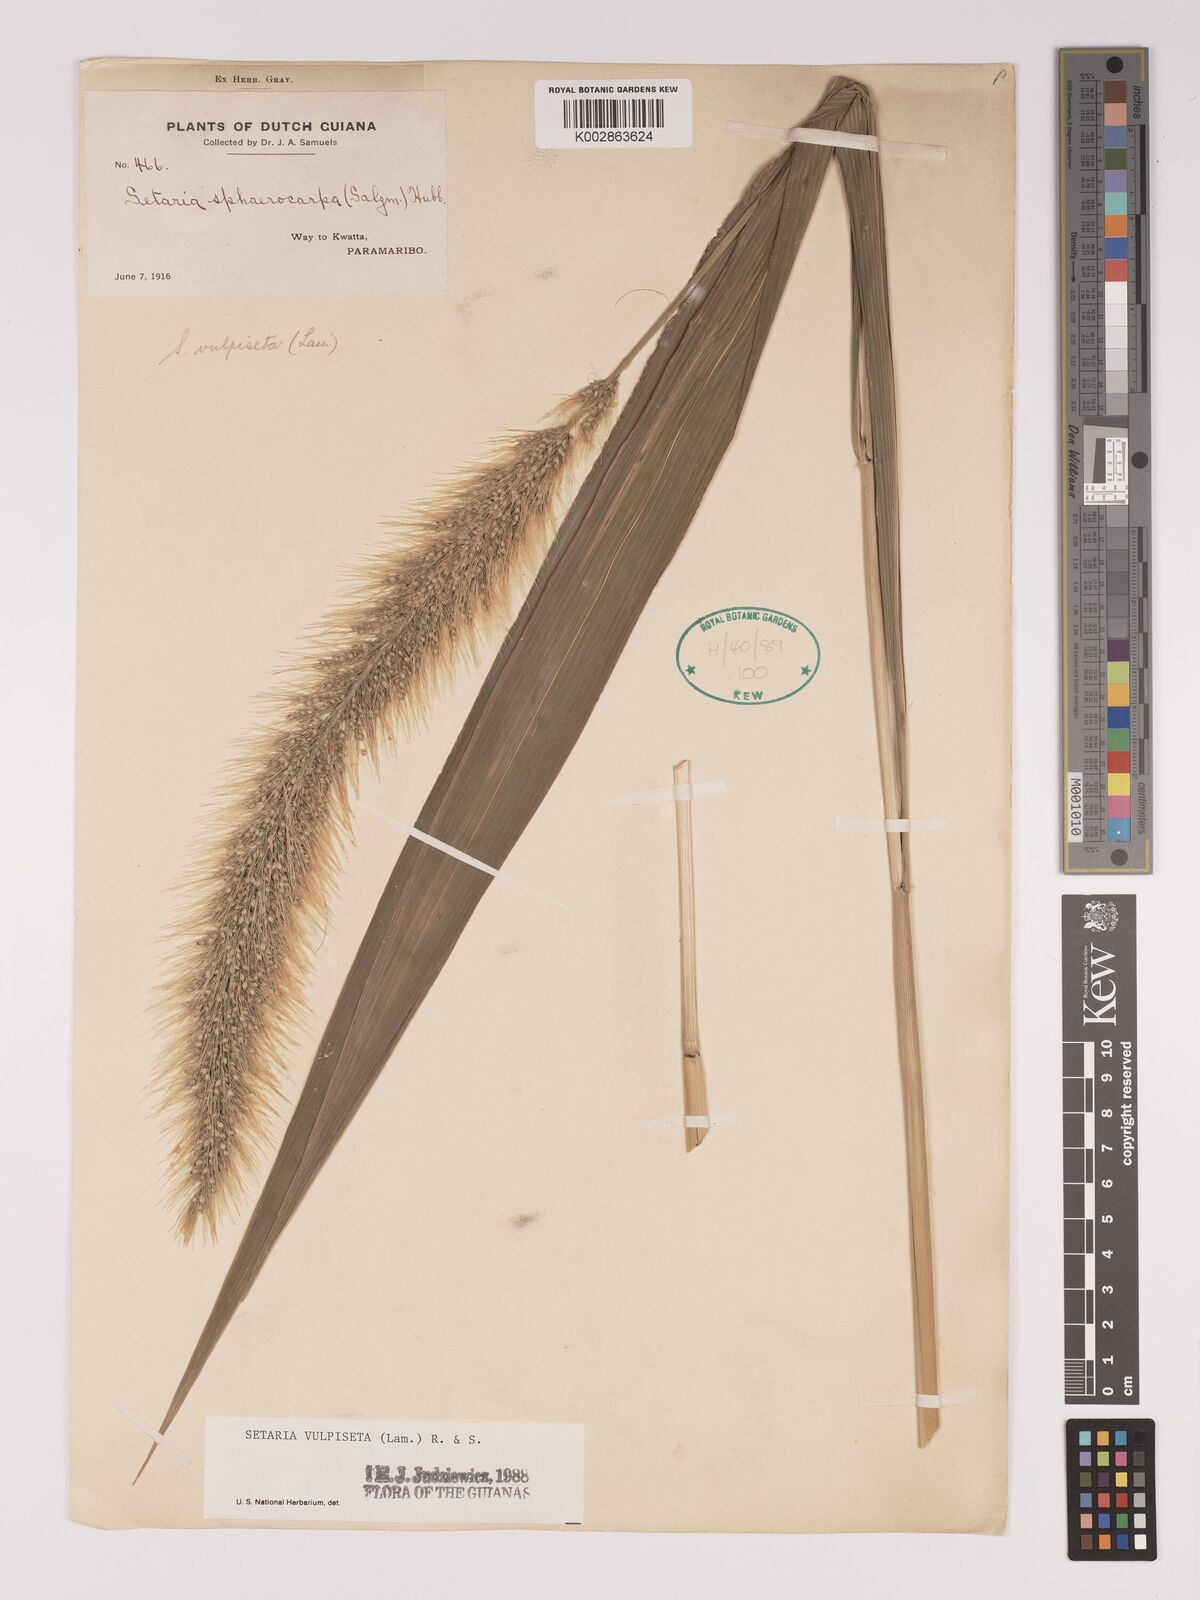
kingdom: Plantae
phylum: Tracheophyta
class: Liliopsida
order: Poales
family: Poaceae
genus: Setaria
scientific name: Setaria vulpiseta
